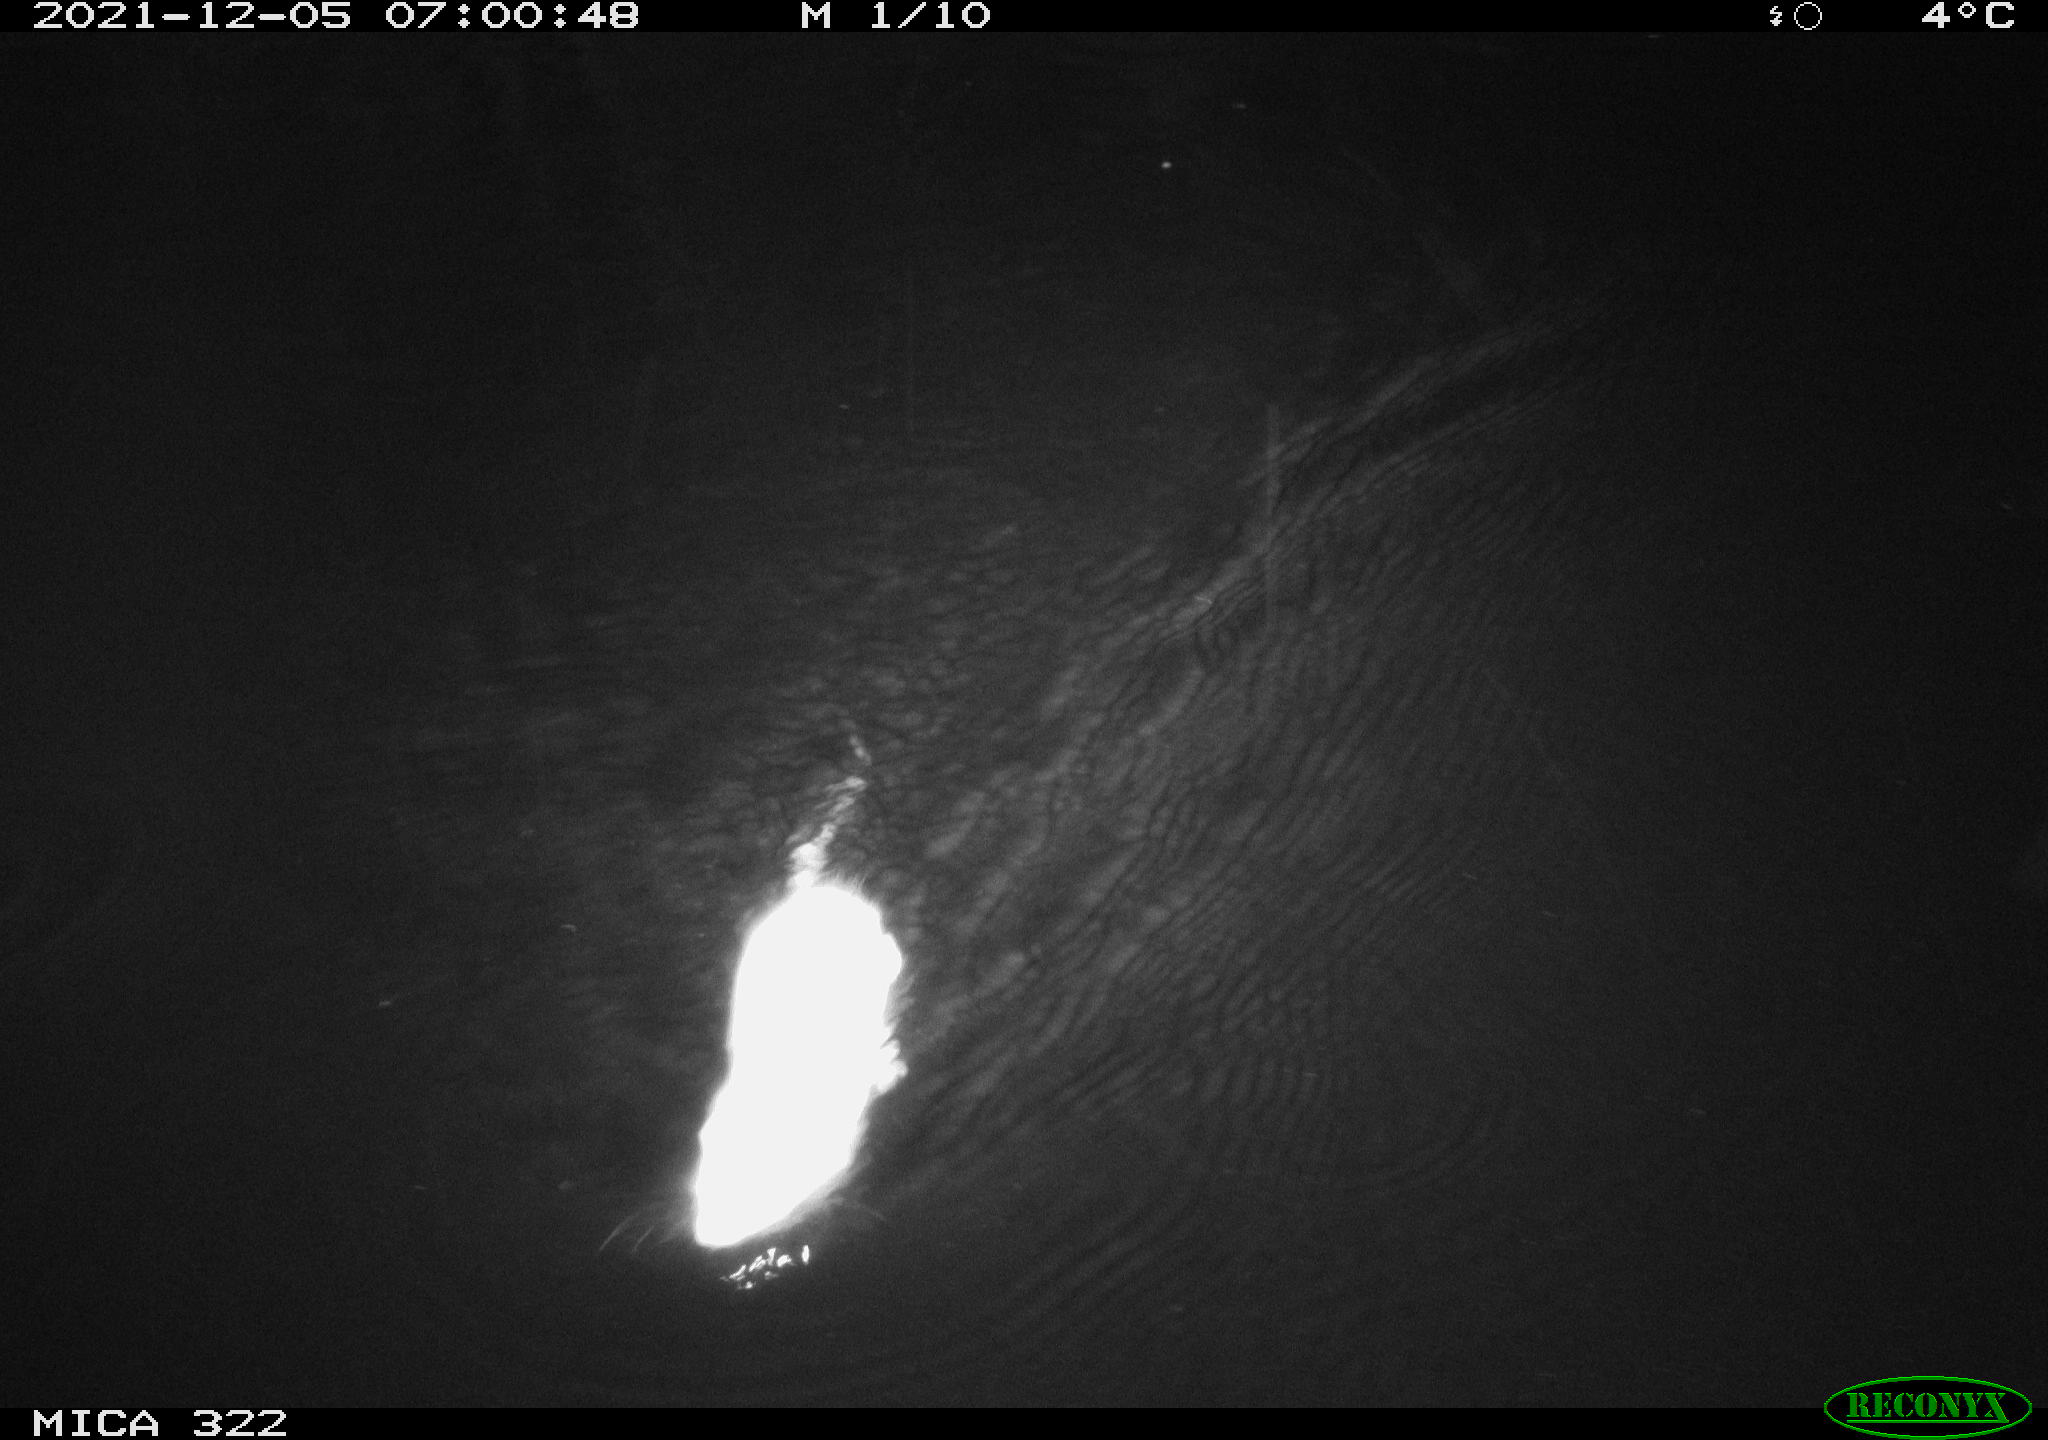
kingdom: Animalia
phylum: Chordata
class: Mammalia
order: Rodentia
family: Muridae
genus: Rattus
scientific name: Rattus norvegicus
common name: Brown rat
